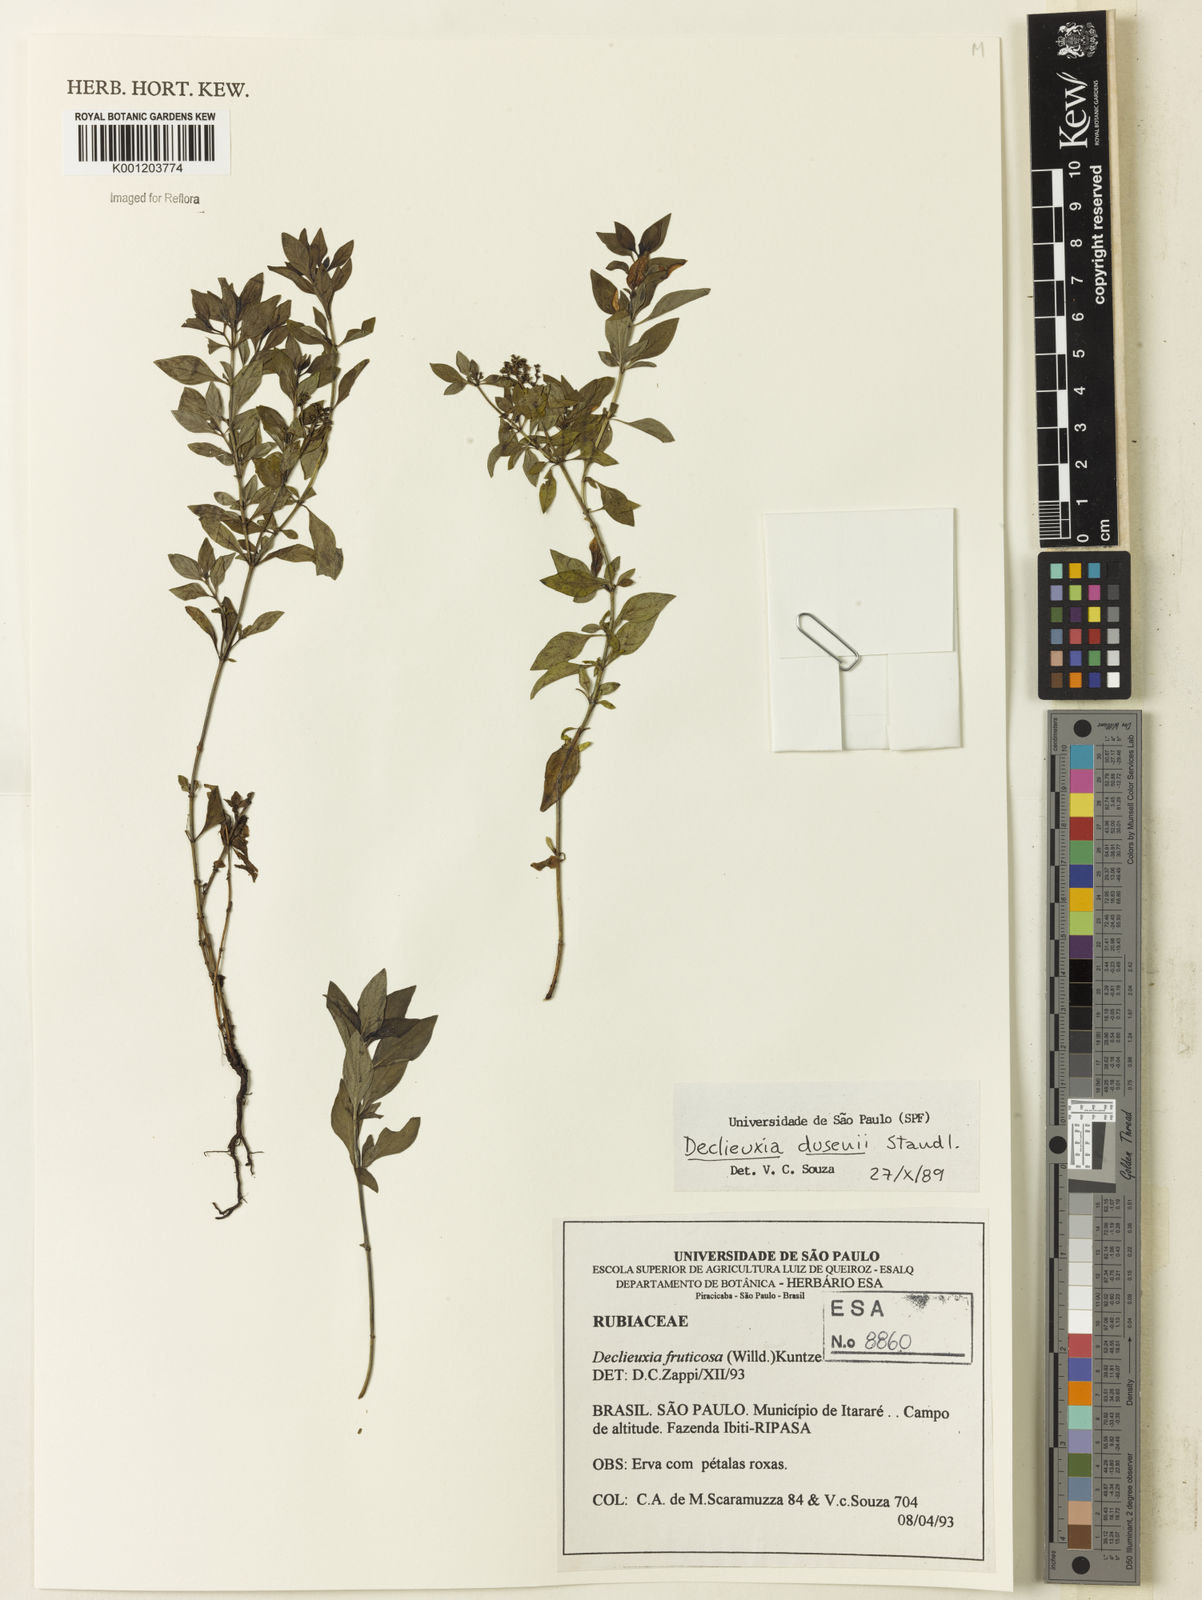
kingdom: Plantae
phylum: Tracheophyta
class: Magnoliopsida
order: Gentianales
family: Rubiaceae
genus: Declieuxia
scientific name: Declieuxia dusenii
